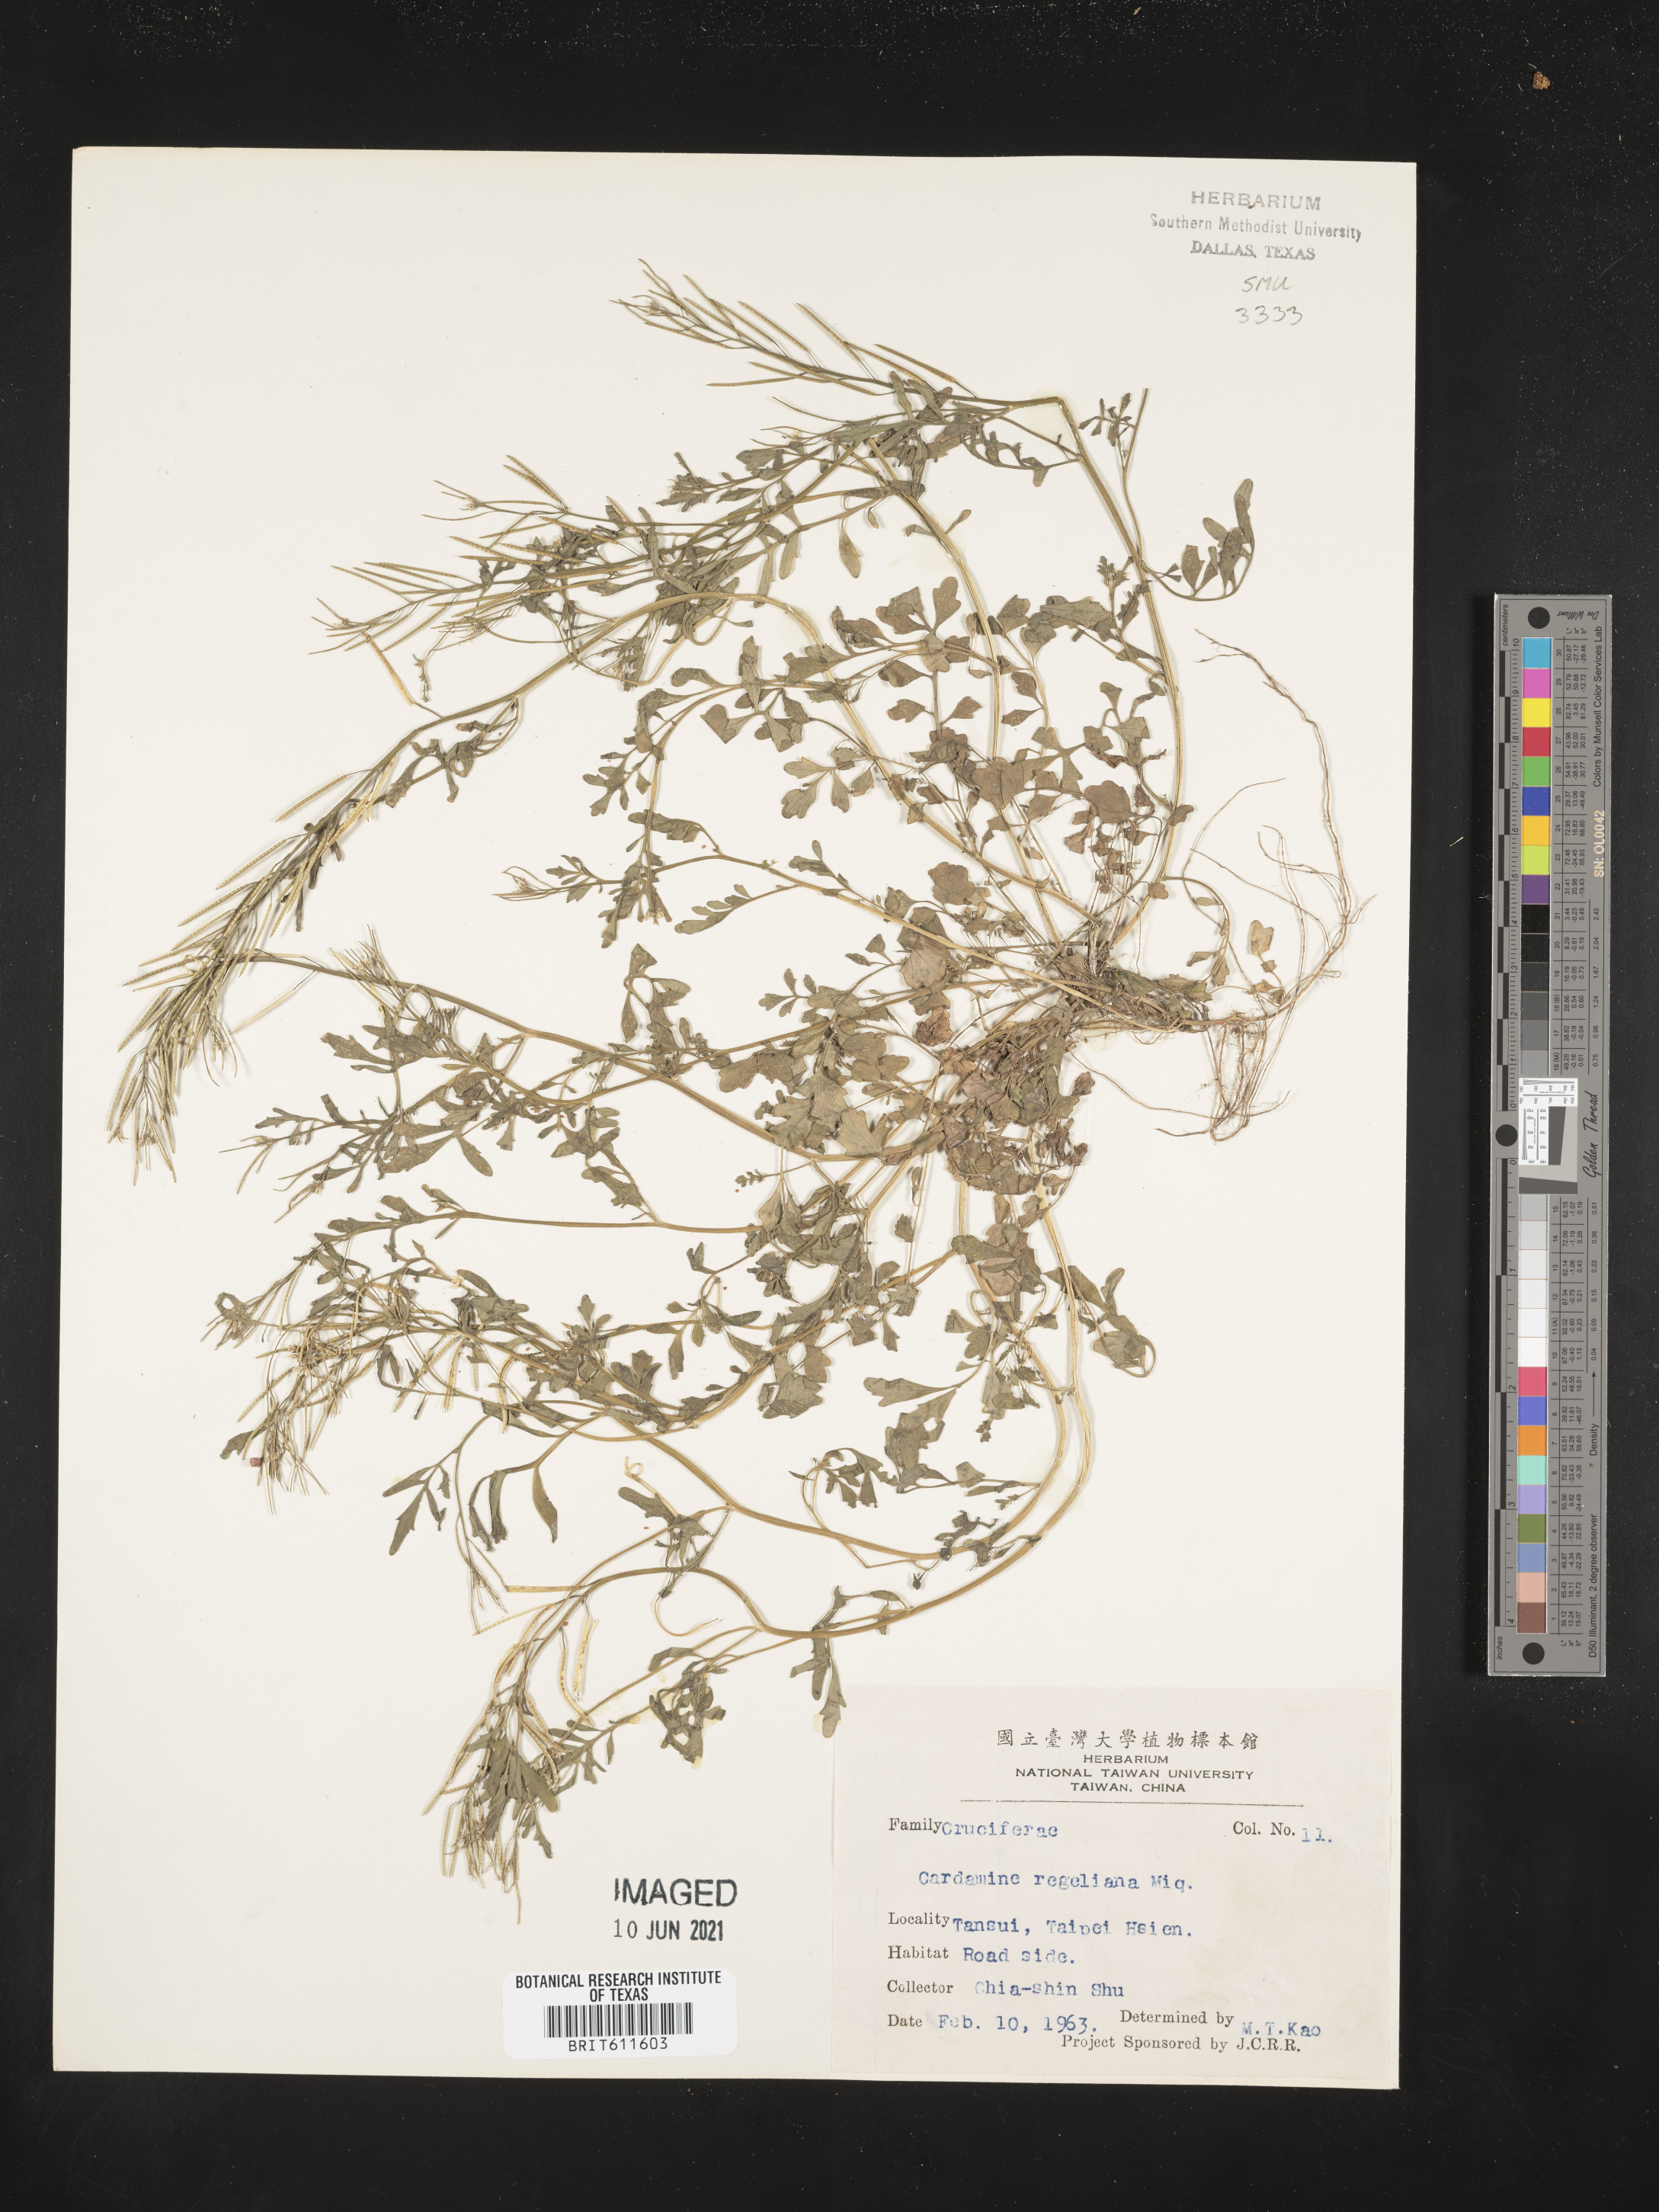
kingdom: Plantae
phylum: Tracheophyta
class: Magnoliopsida
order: Brassicales
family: Brassicaceae
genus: Cardamine
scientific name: Cardamine regeliana
